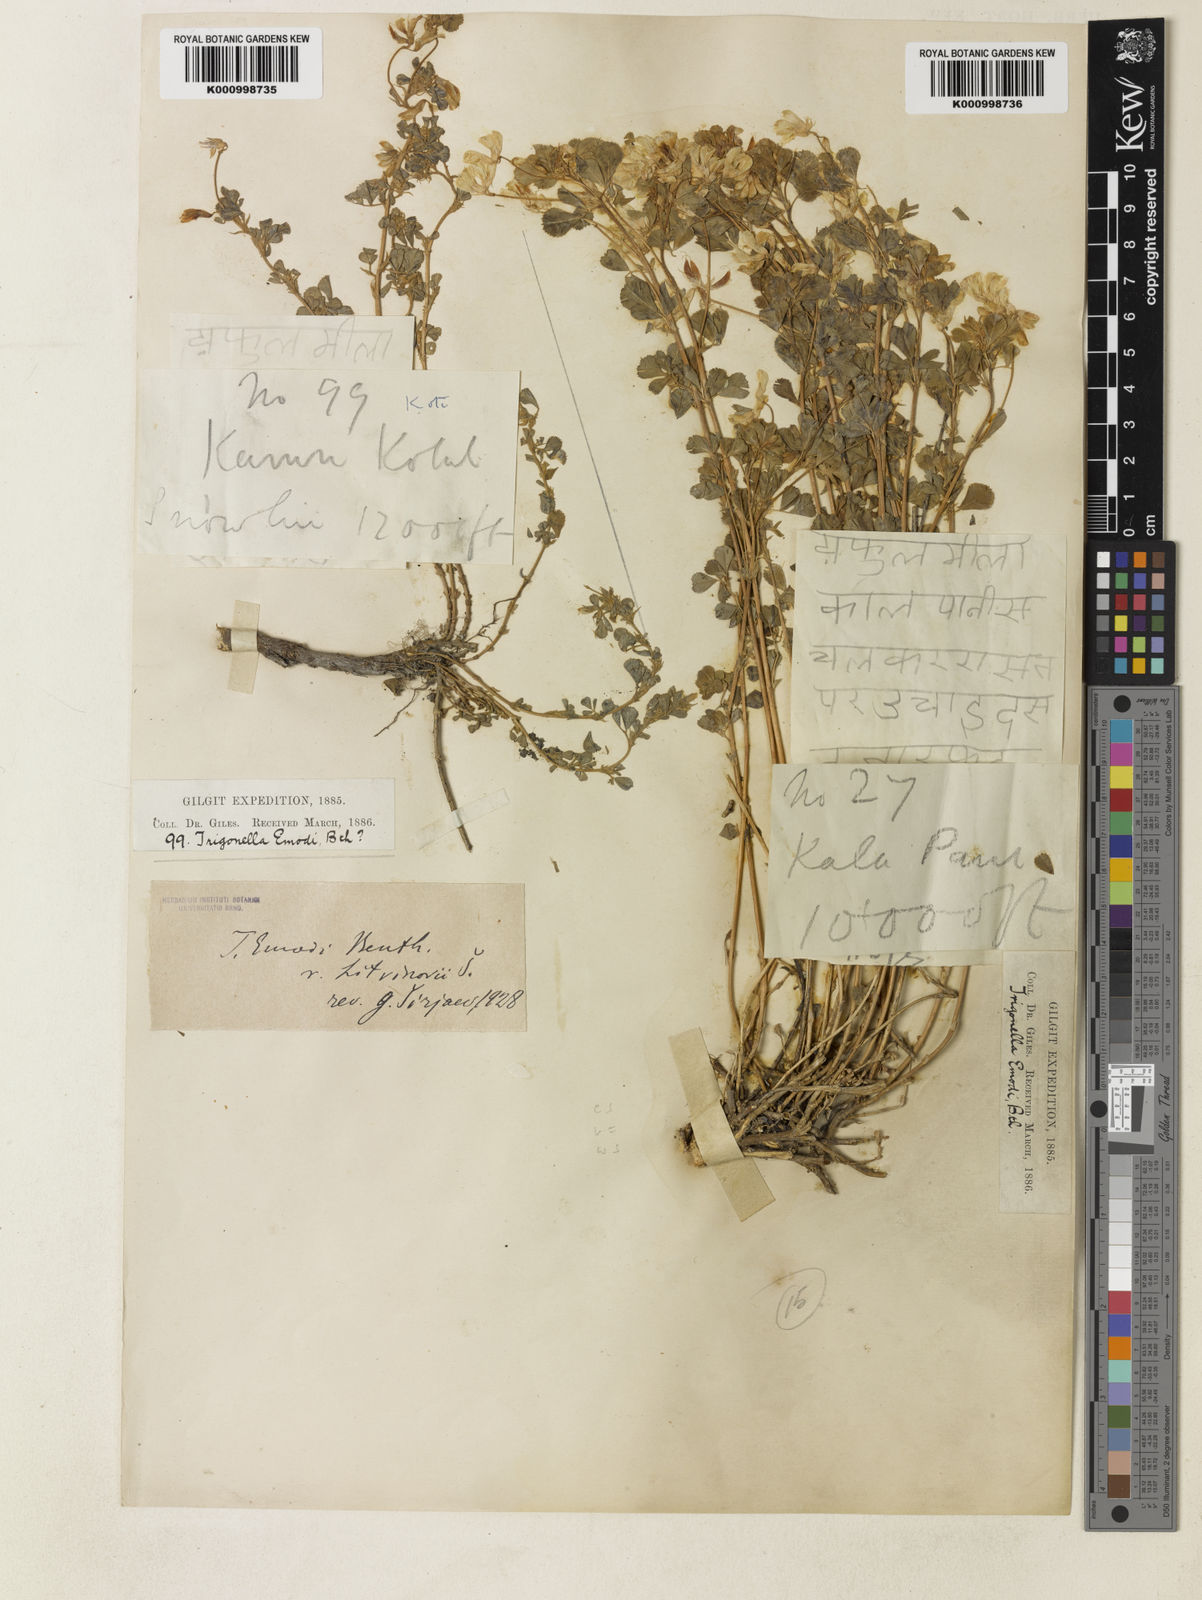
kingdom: Plantae
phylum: Tracheophyta
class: Magnoliopsida
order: Fabales
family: Fabaceae
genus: Trigonella
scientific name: Trigonella cachemiriana
